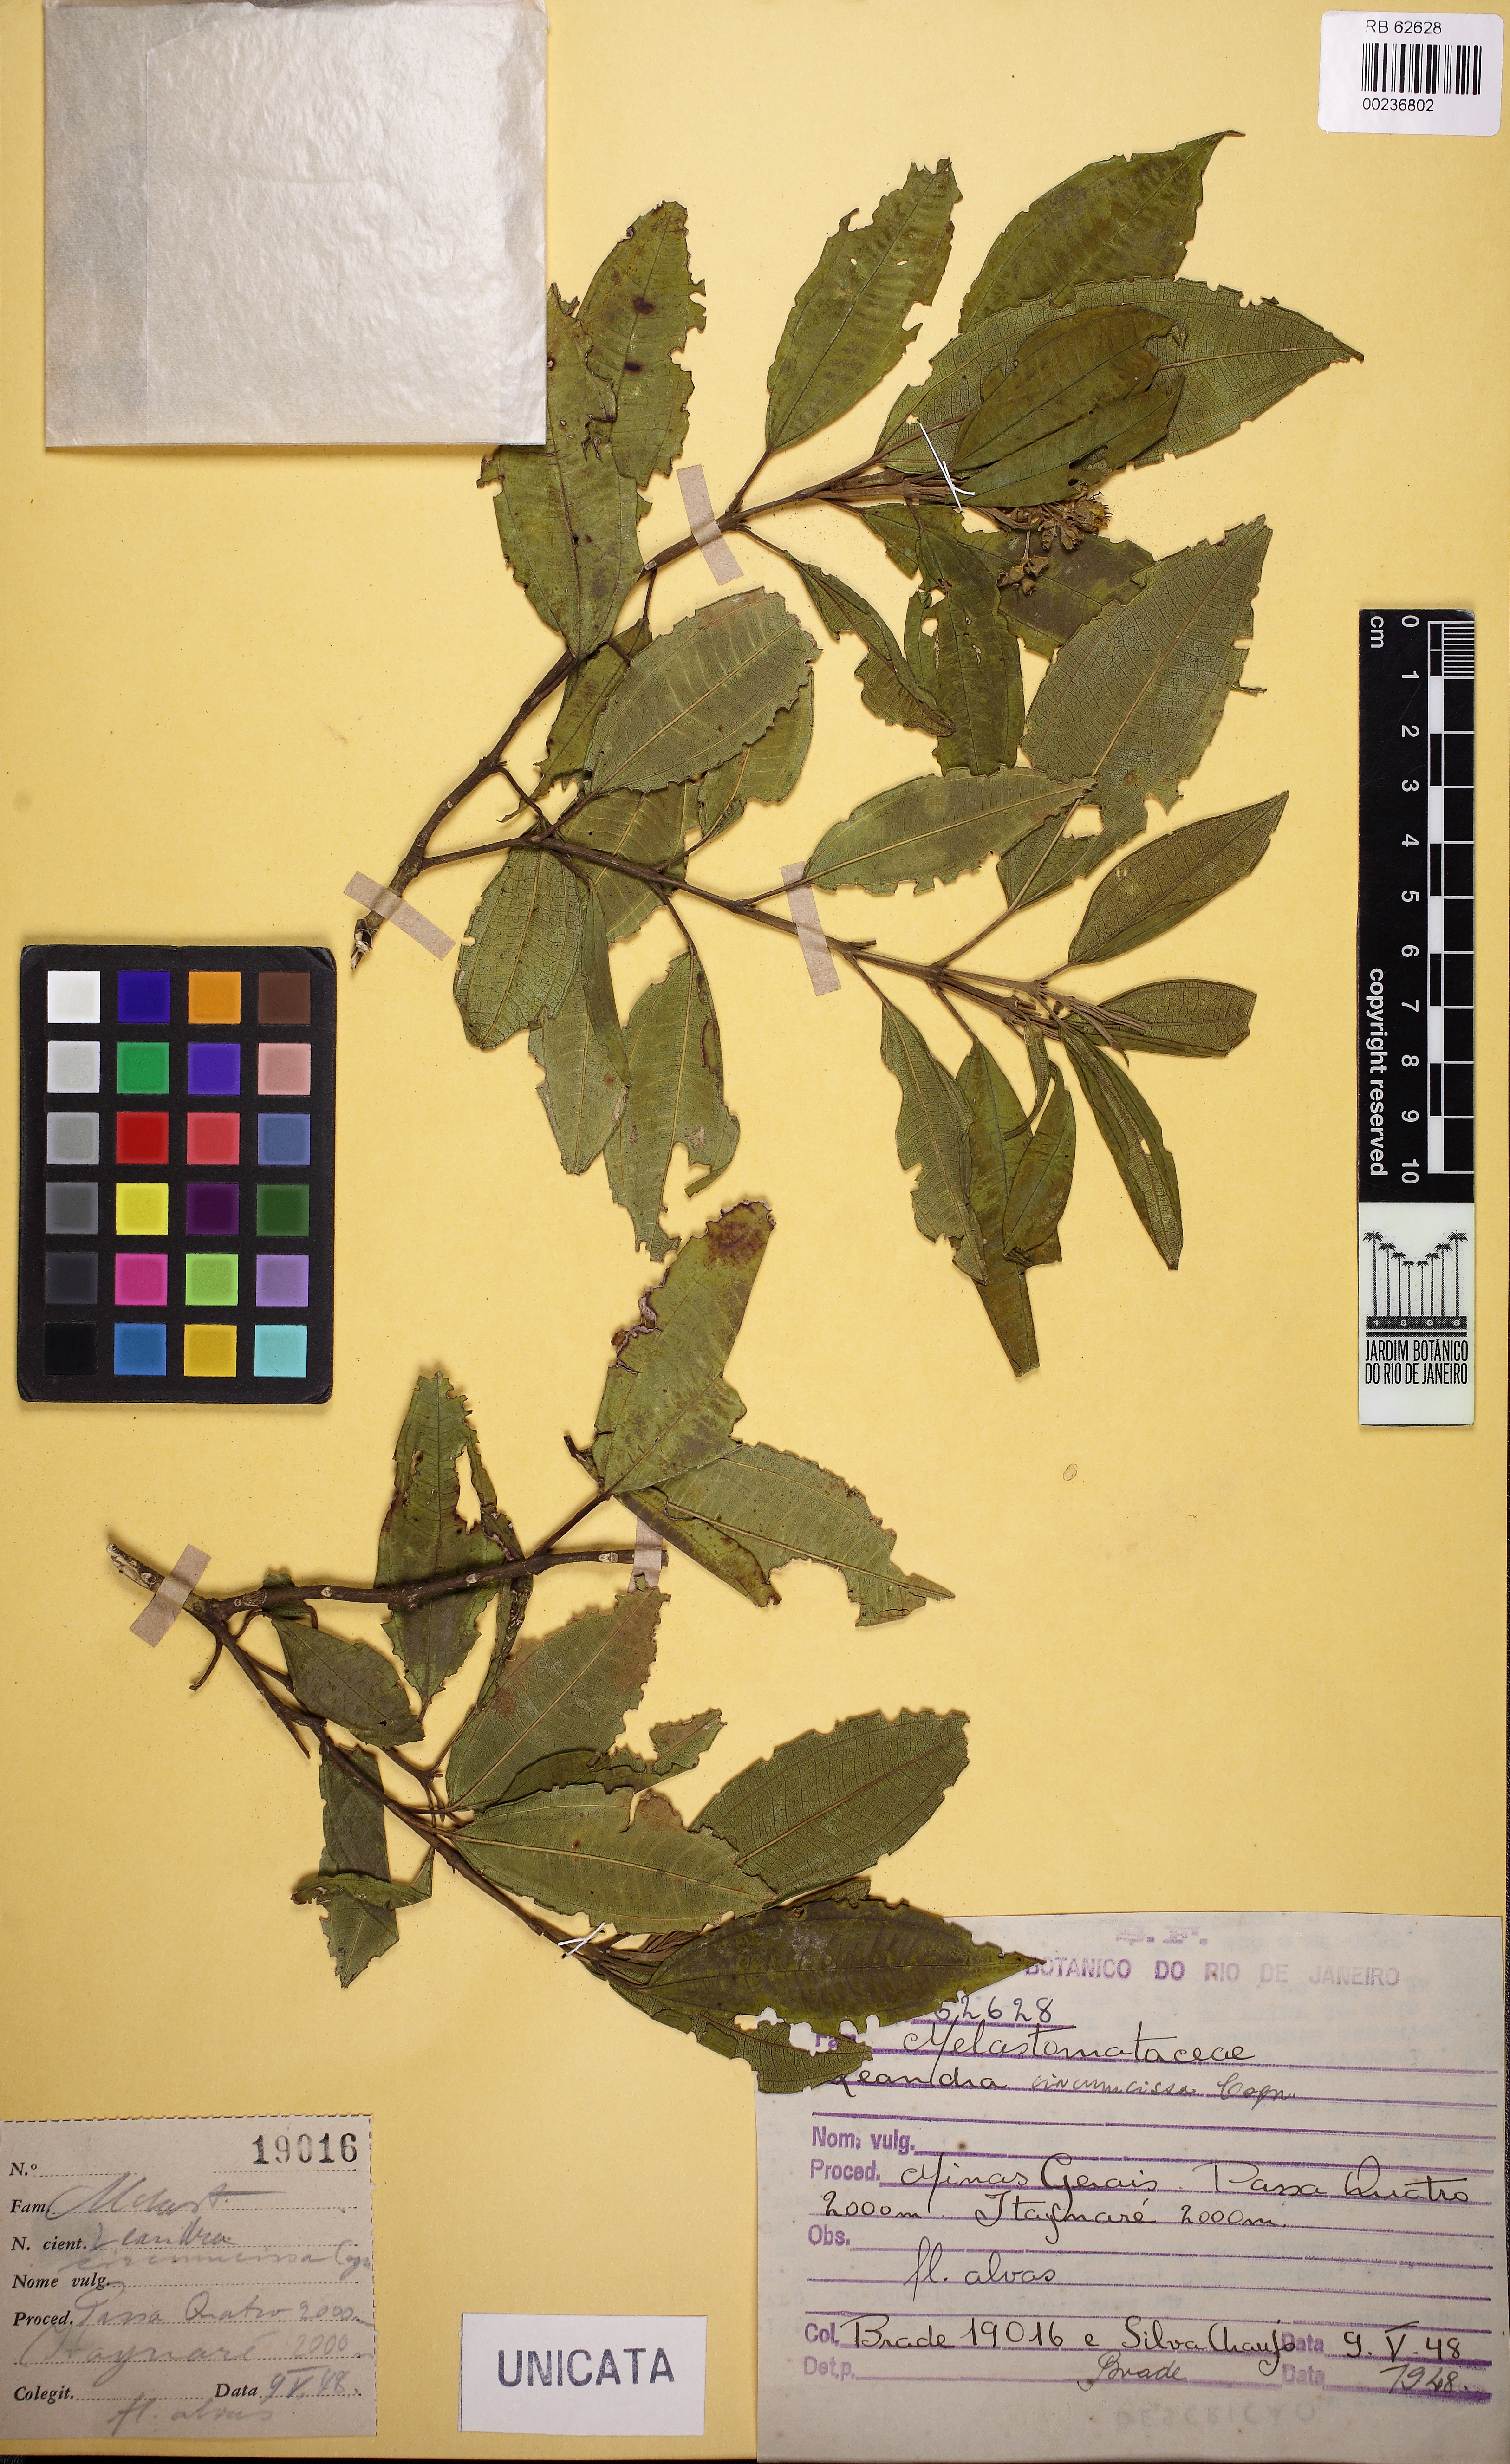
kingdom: Plantae
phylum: Tracheophyta
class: Magnoliopsida
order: Myrtales
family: Melastomataceae
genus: Miconia
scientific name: Miconia circumscissa
